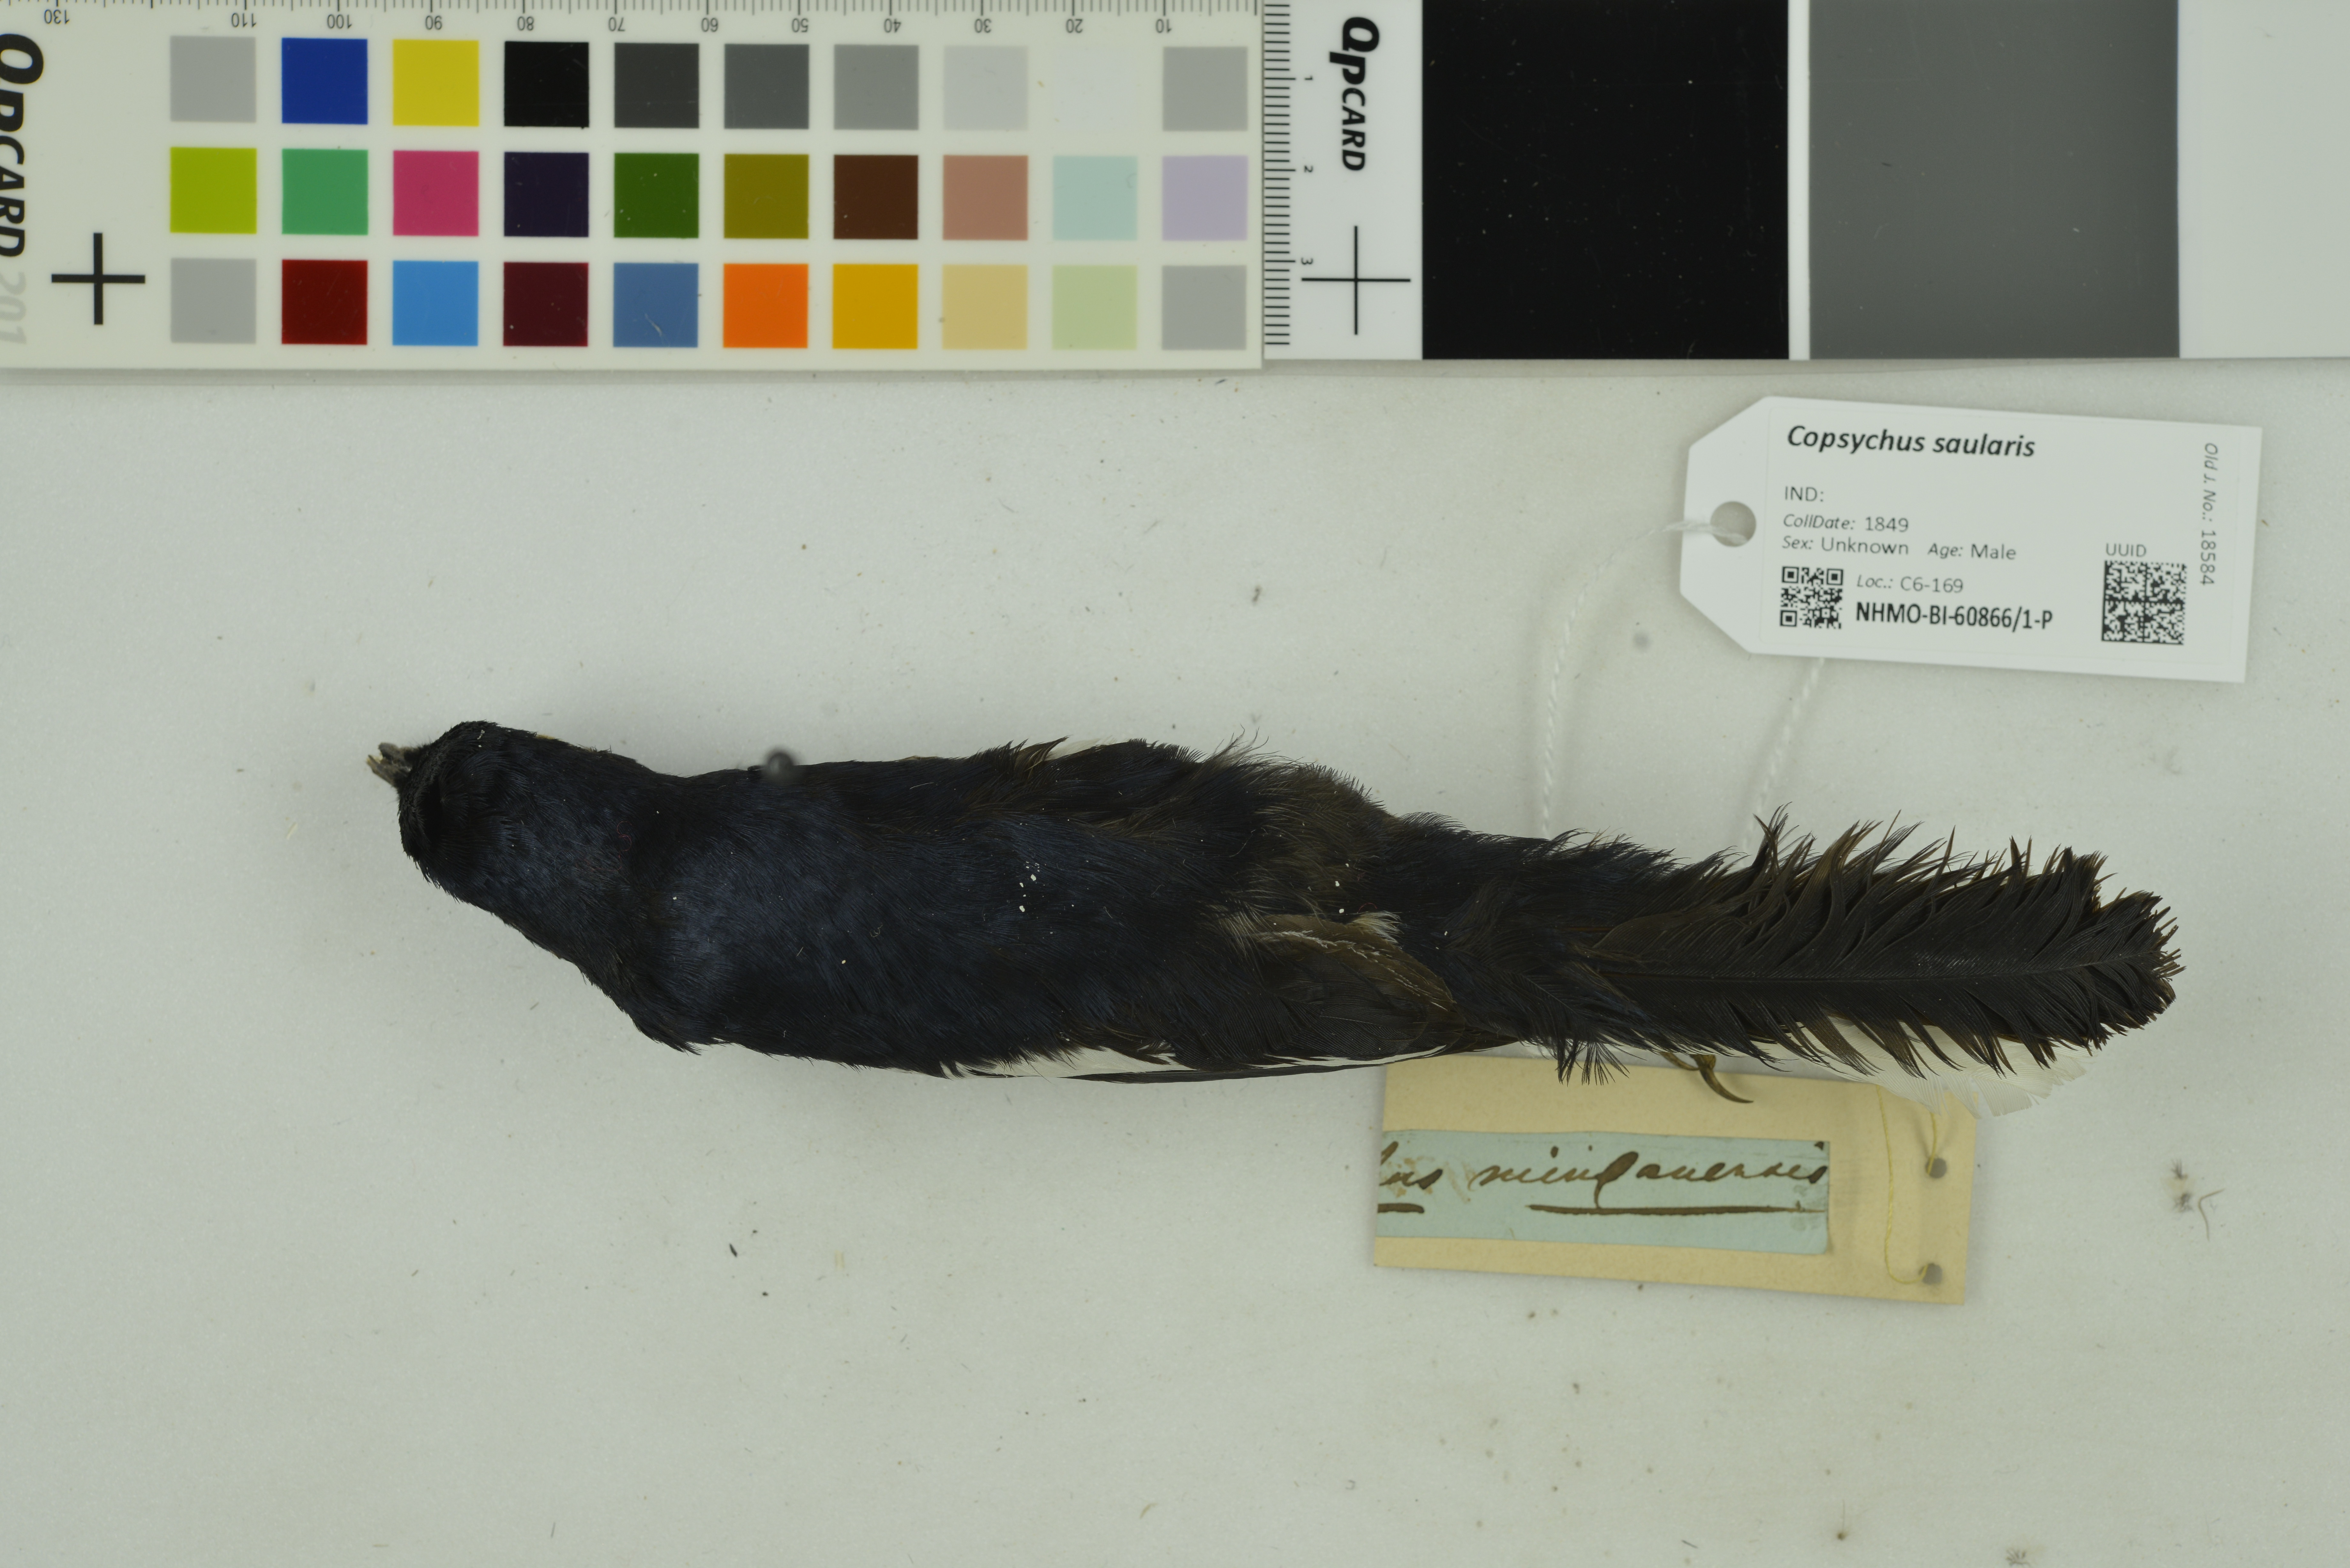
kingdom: Animalia
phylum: Chordata
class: Aves
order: Passeriformes
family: Muscicapidae
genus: Copsychus
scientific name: Copsychus saularis
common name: Oriental magpie-robin
